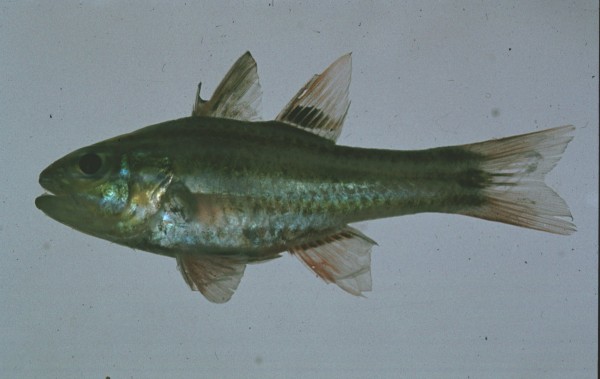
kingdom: Animalia
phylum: Chordata
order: Perciformes
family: Apogonidae
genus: Pristiapogon
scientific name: Pristiapogon kallopterus
